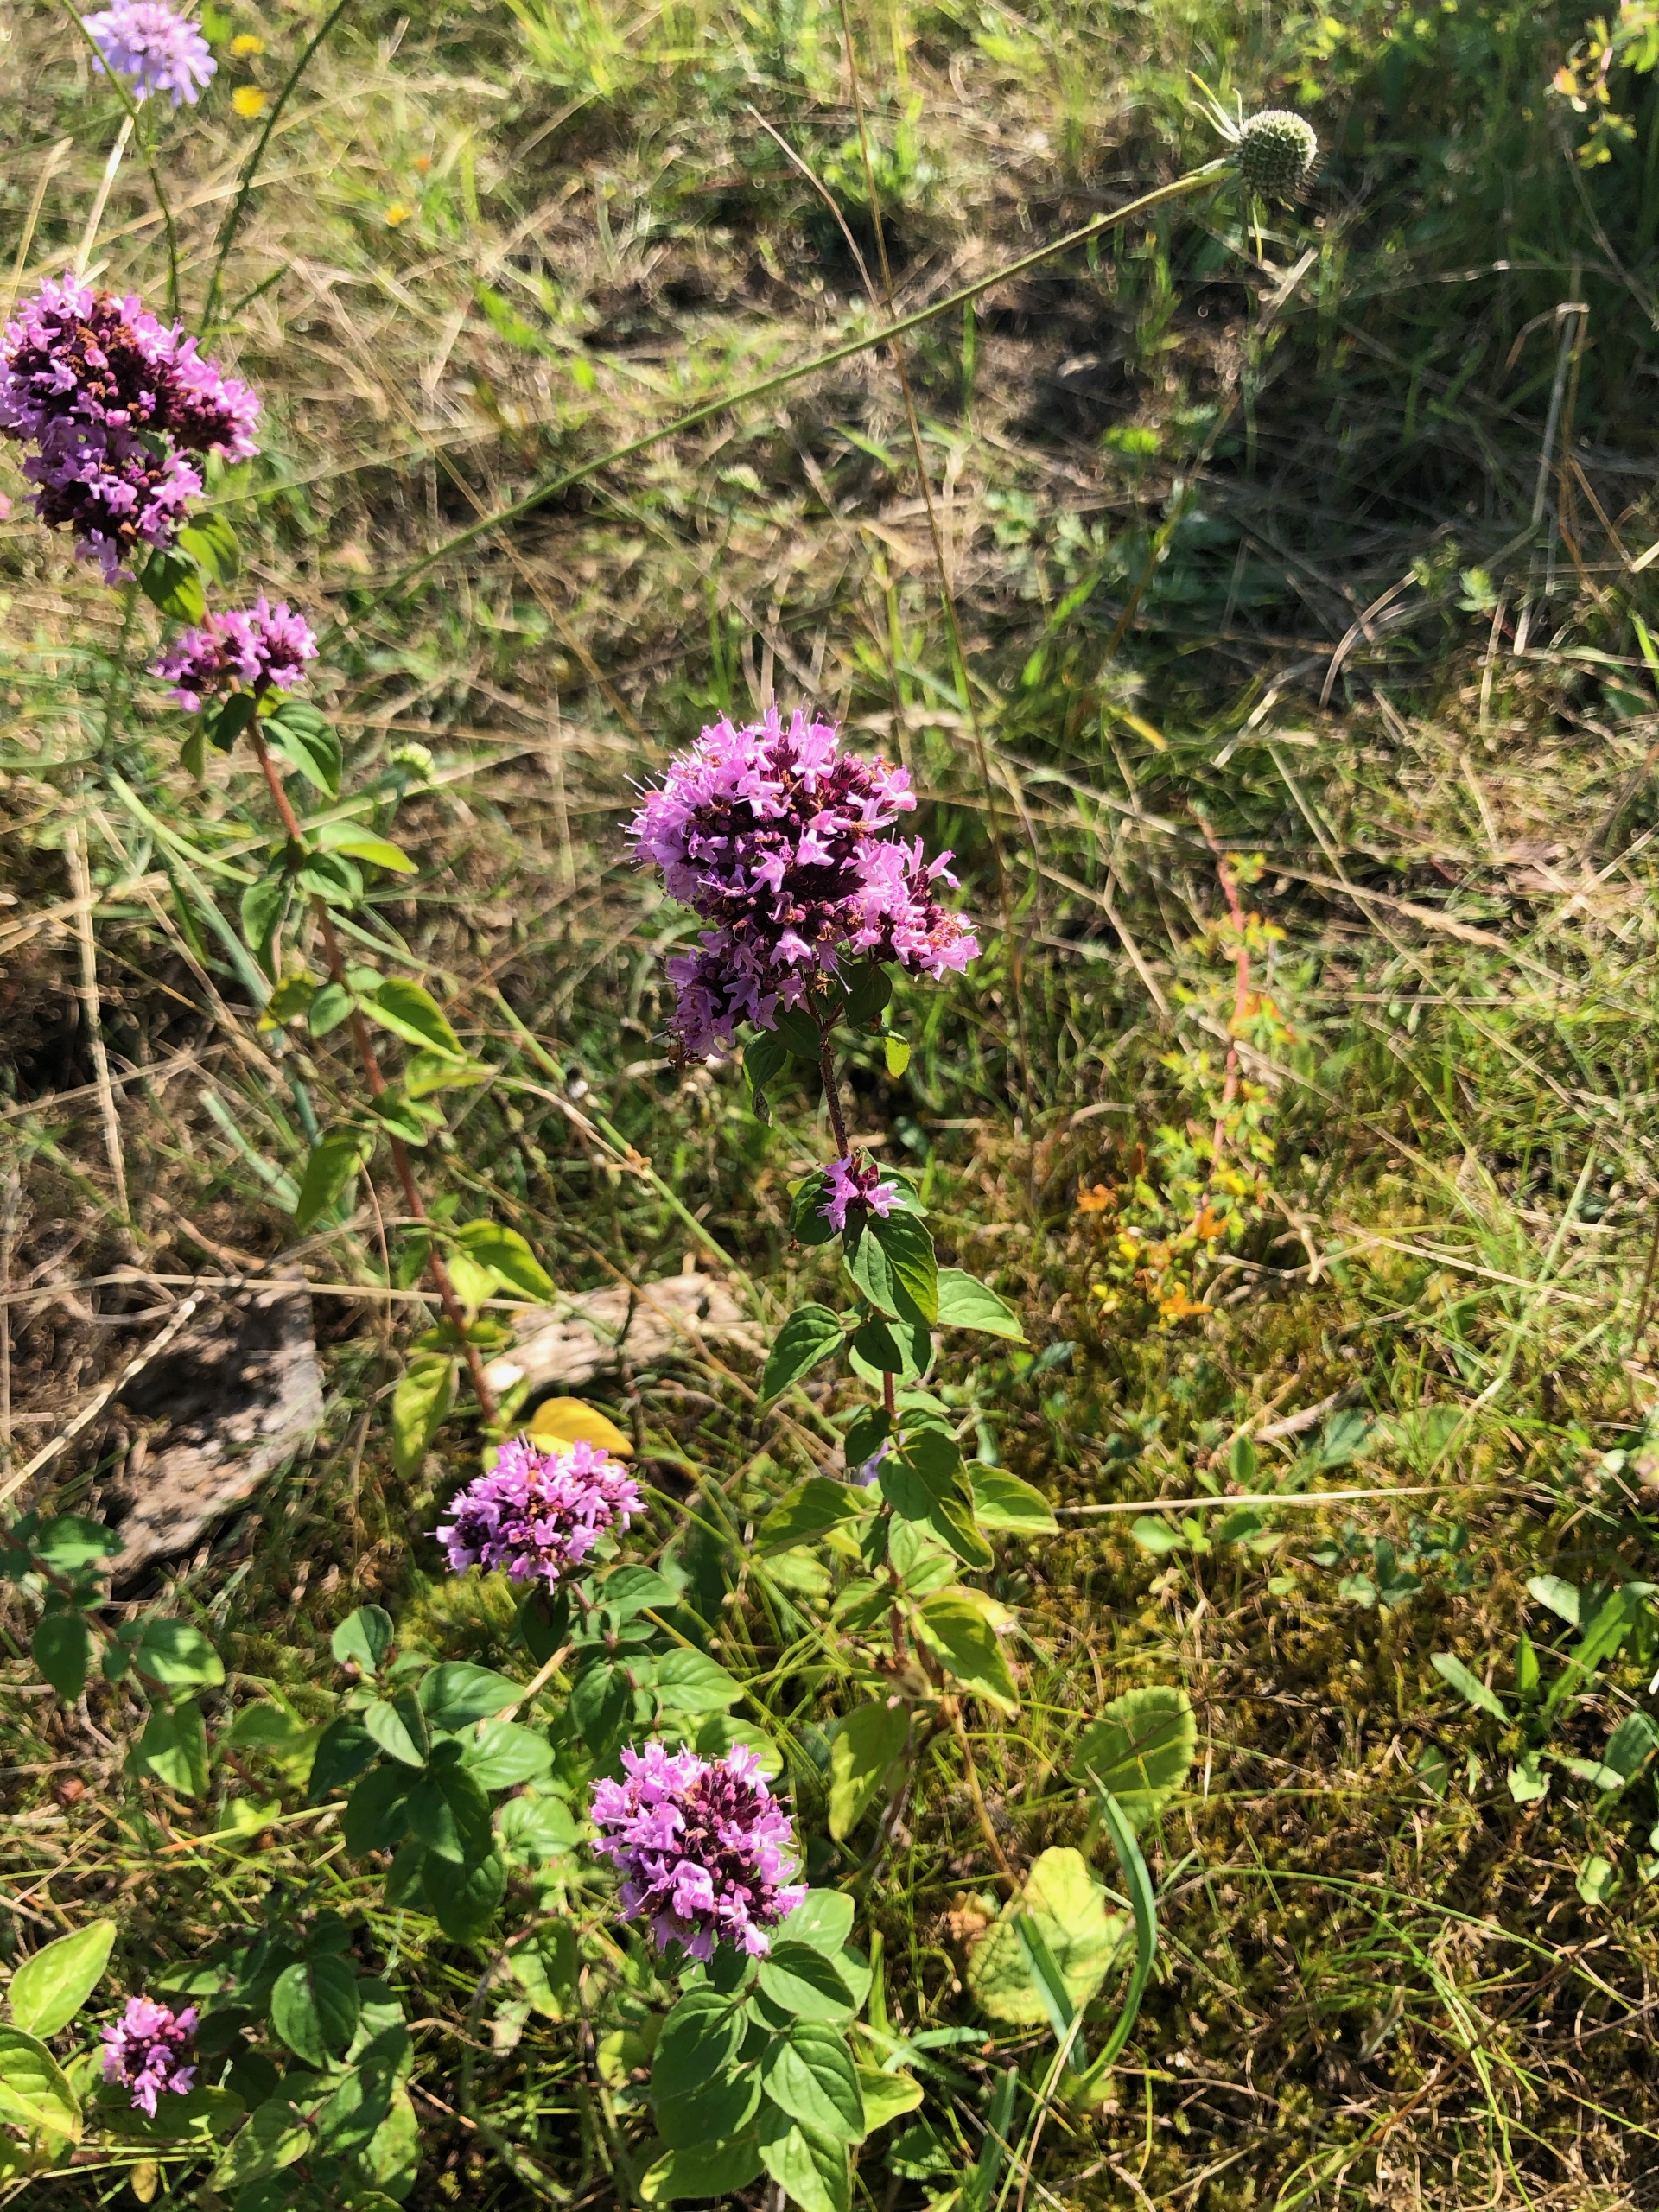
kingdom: Plantae
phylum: Tracheophyta
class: Magnoliopsida
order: Lamiales
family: Lamiaceae
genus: Origanum
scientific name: Origanum vulgare
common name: Merian
